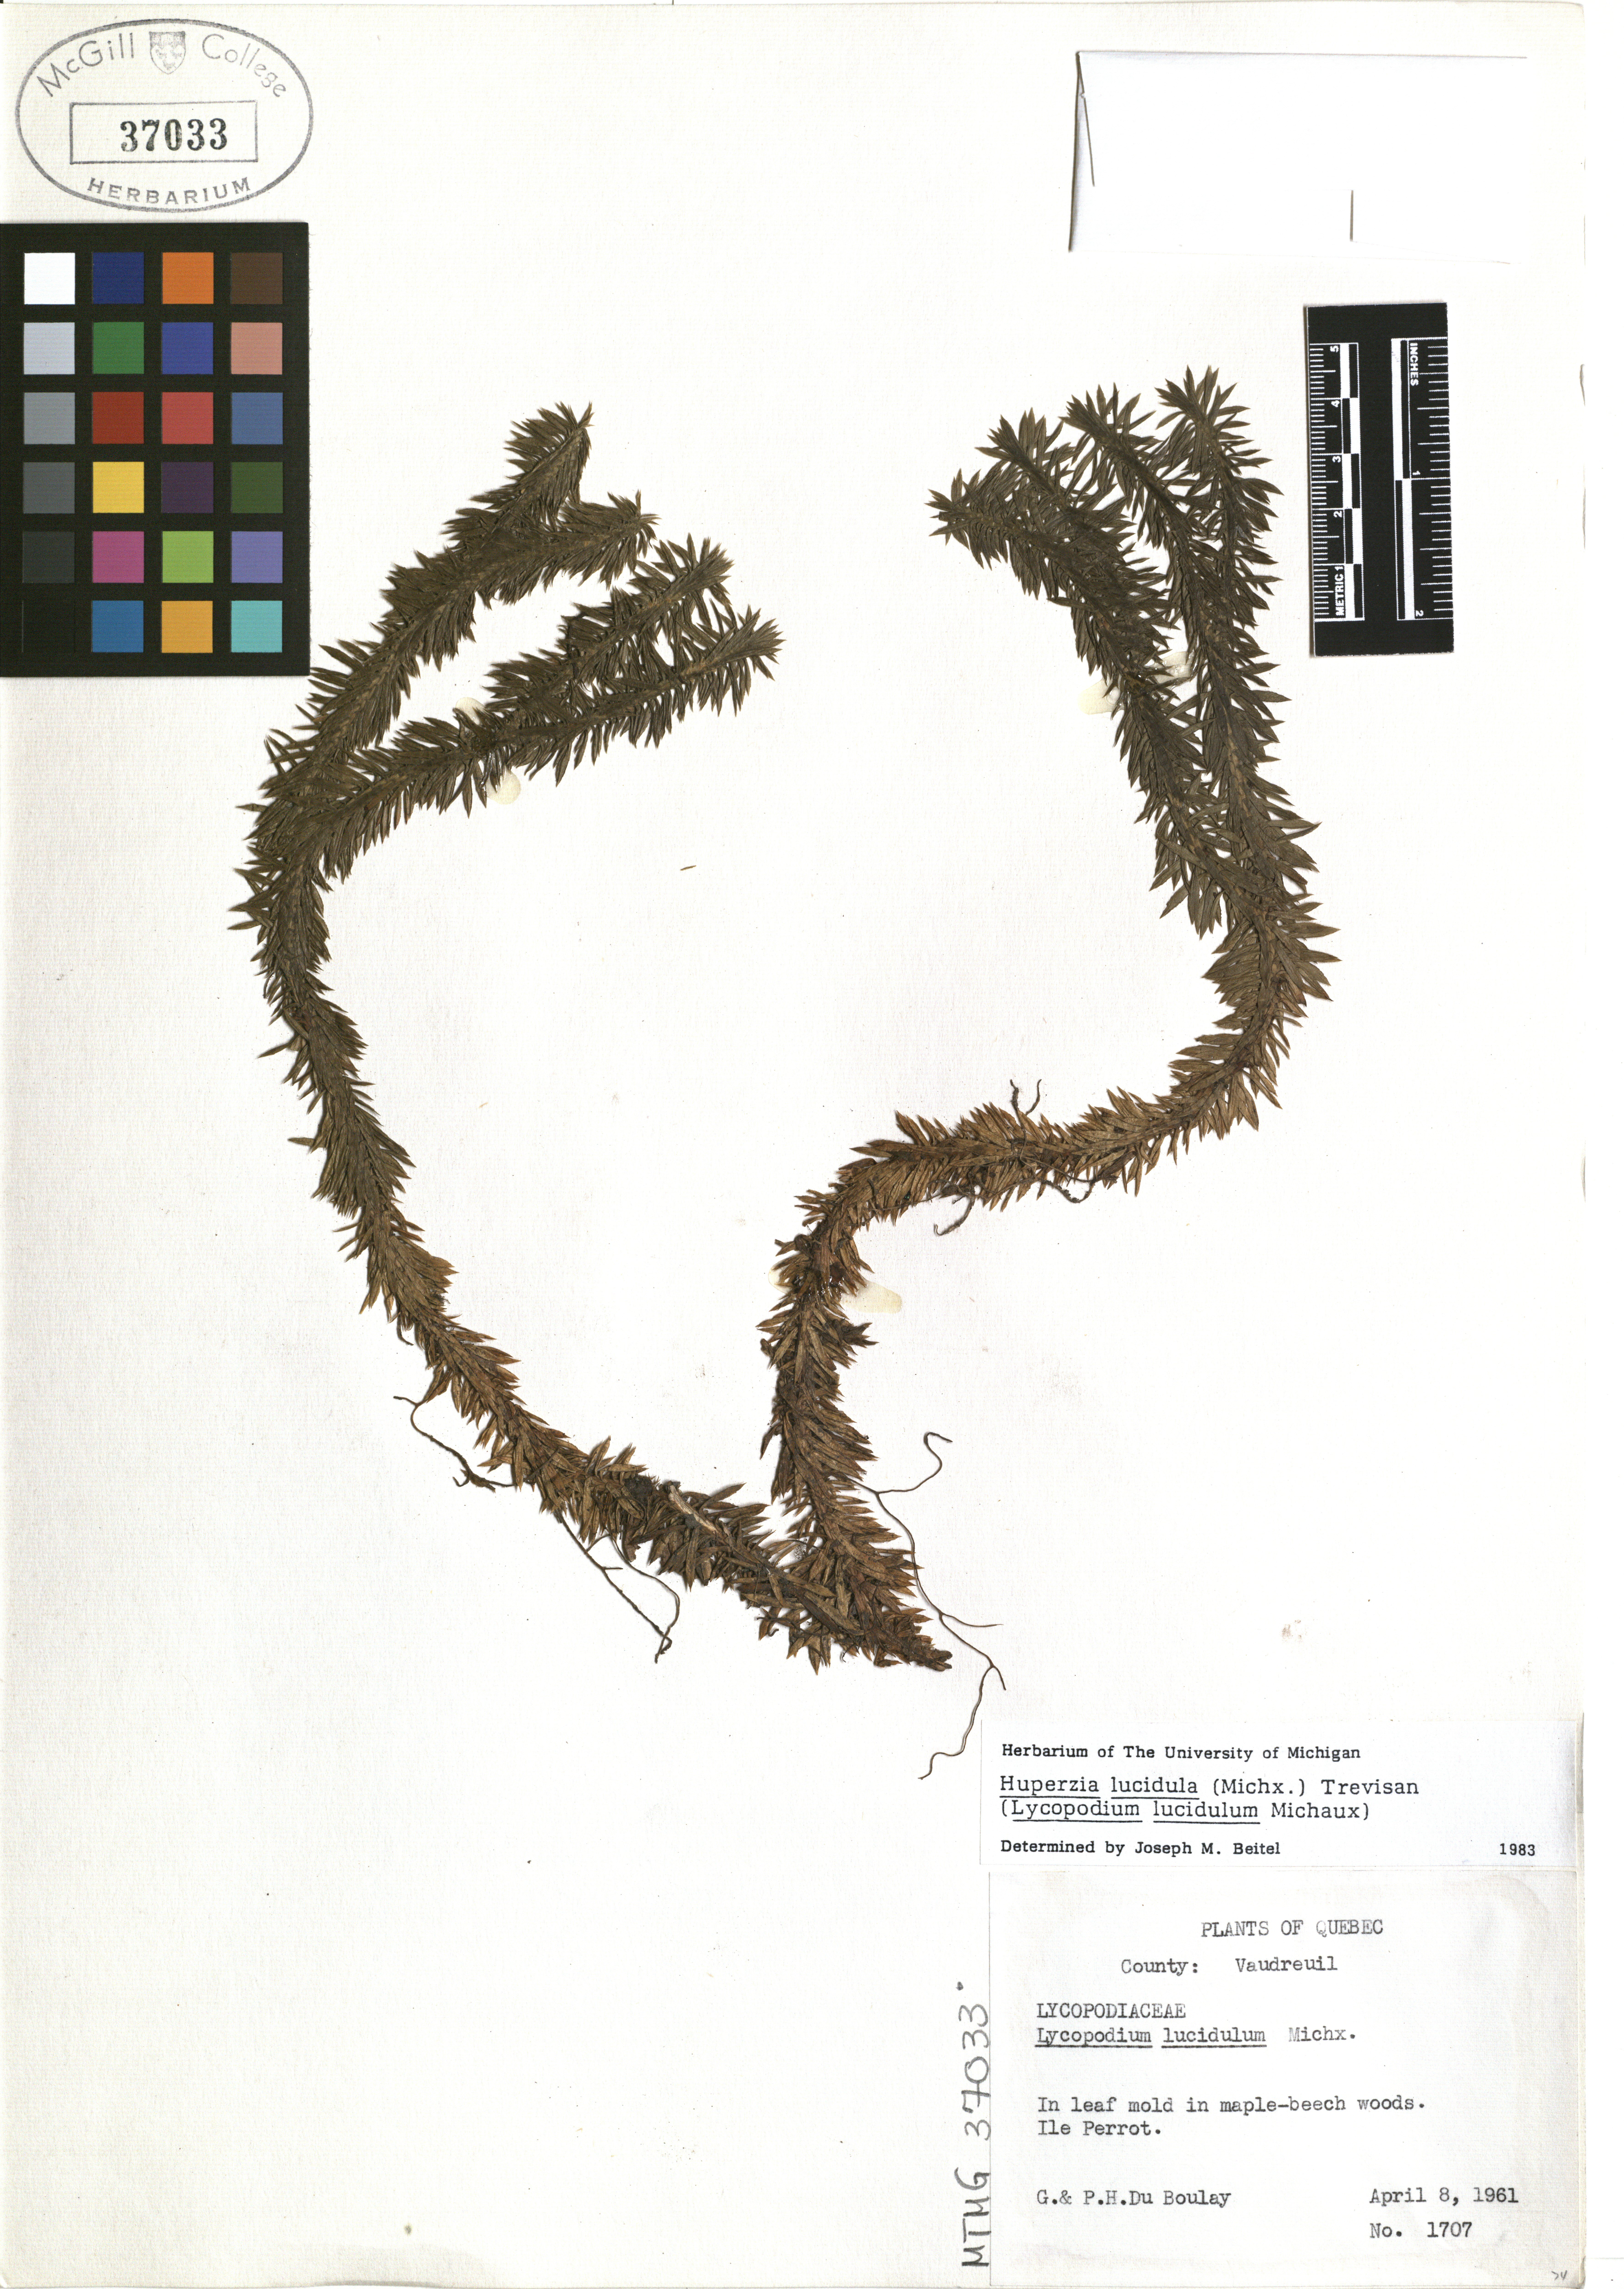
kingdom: Plantae
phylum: Tracheophyta
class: Lycopodiopsida
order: Lycopodiales
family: Lycopodiaceae
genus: Huperzia
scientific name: Huperzia lucidula
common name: Shining clubmoss
